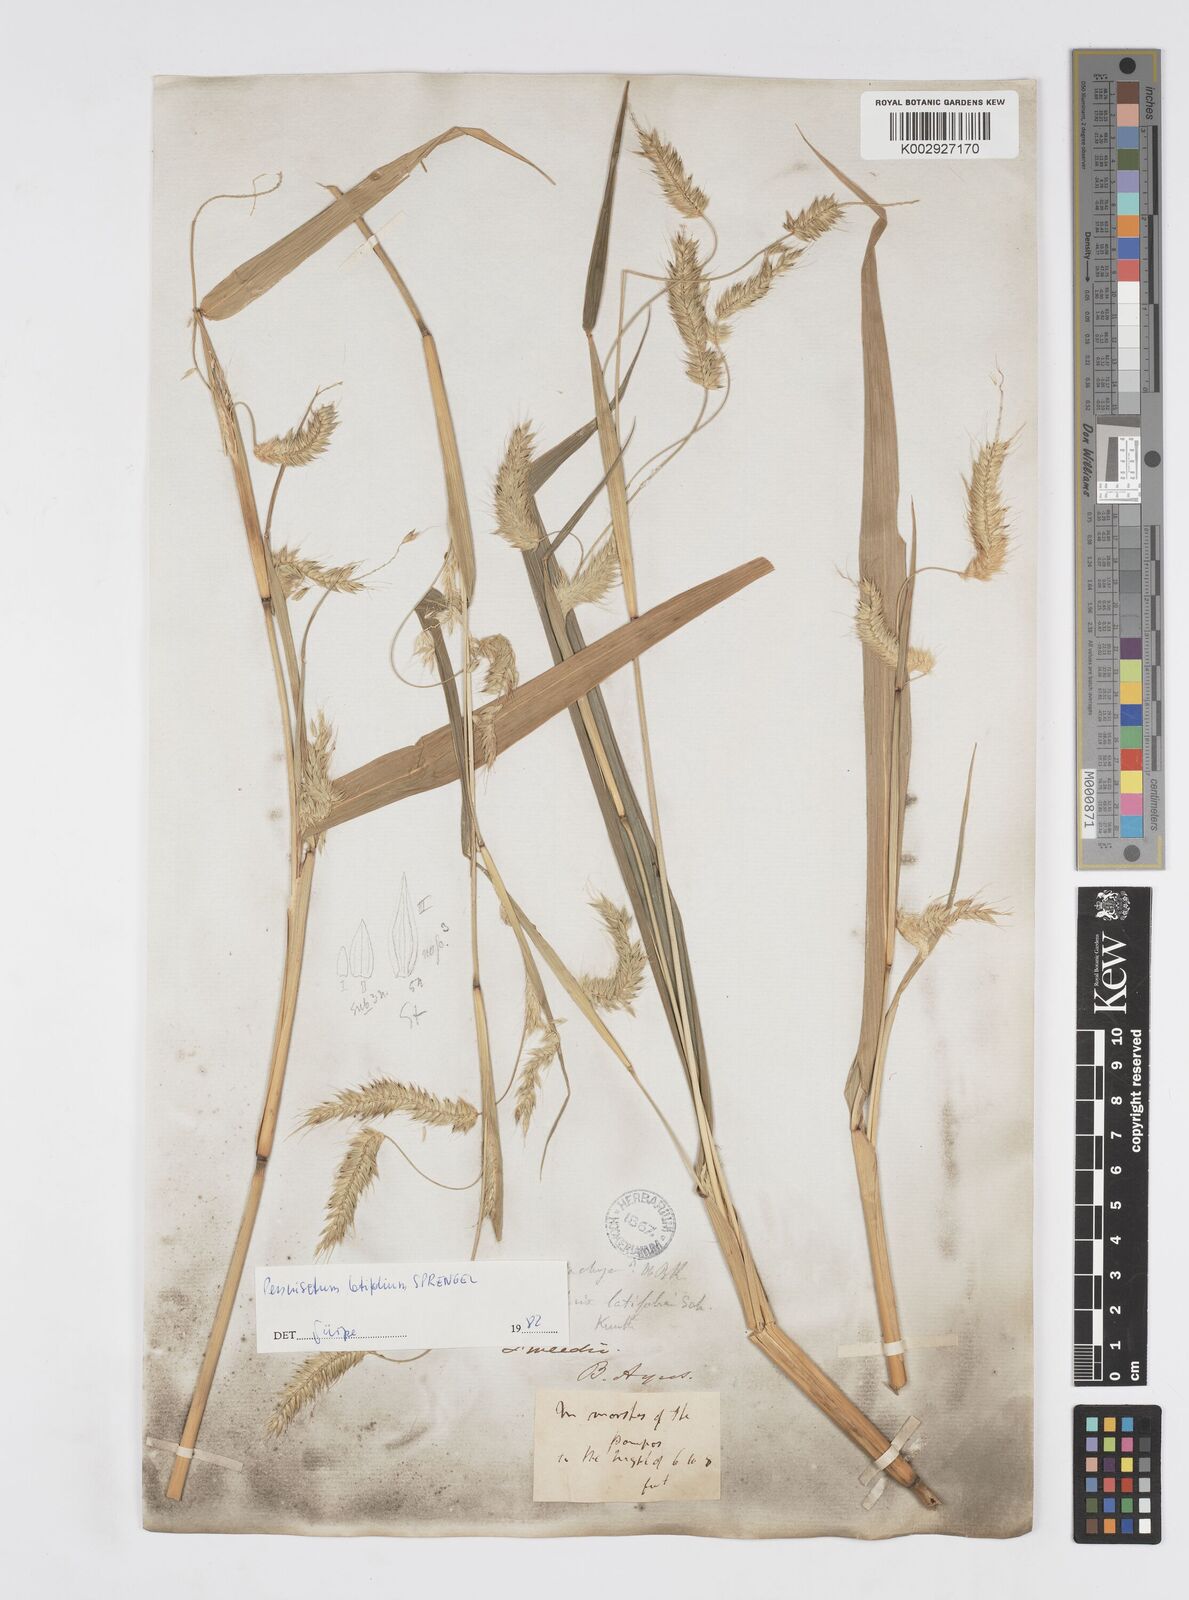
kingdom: Plantae
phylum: Tracheophyta
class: Liliopsida
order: Poales
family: Poaceae
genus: Cenchrus
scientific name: Cenchrus latifolius
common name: Sandbur
